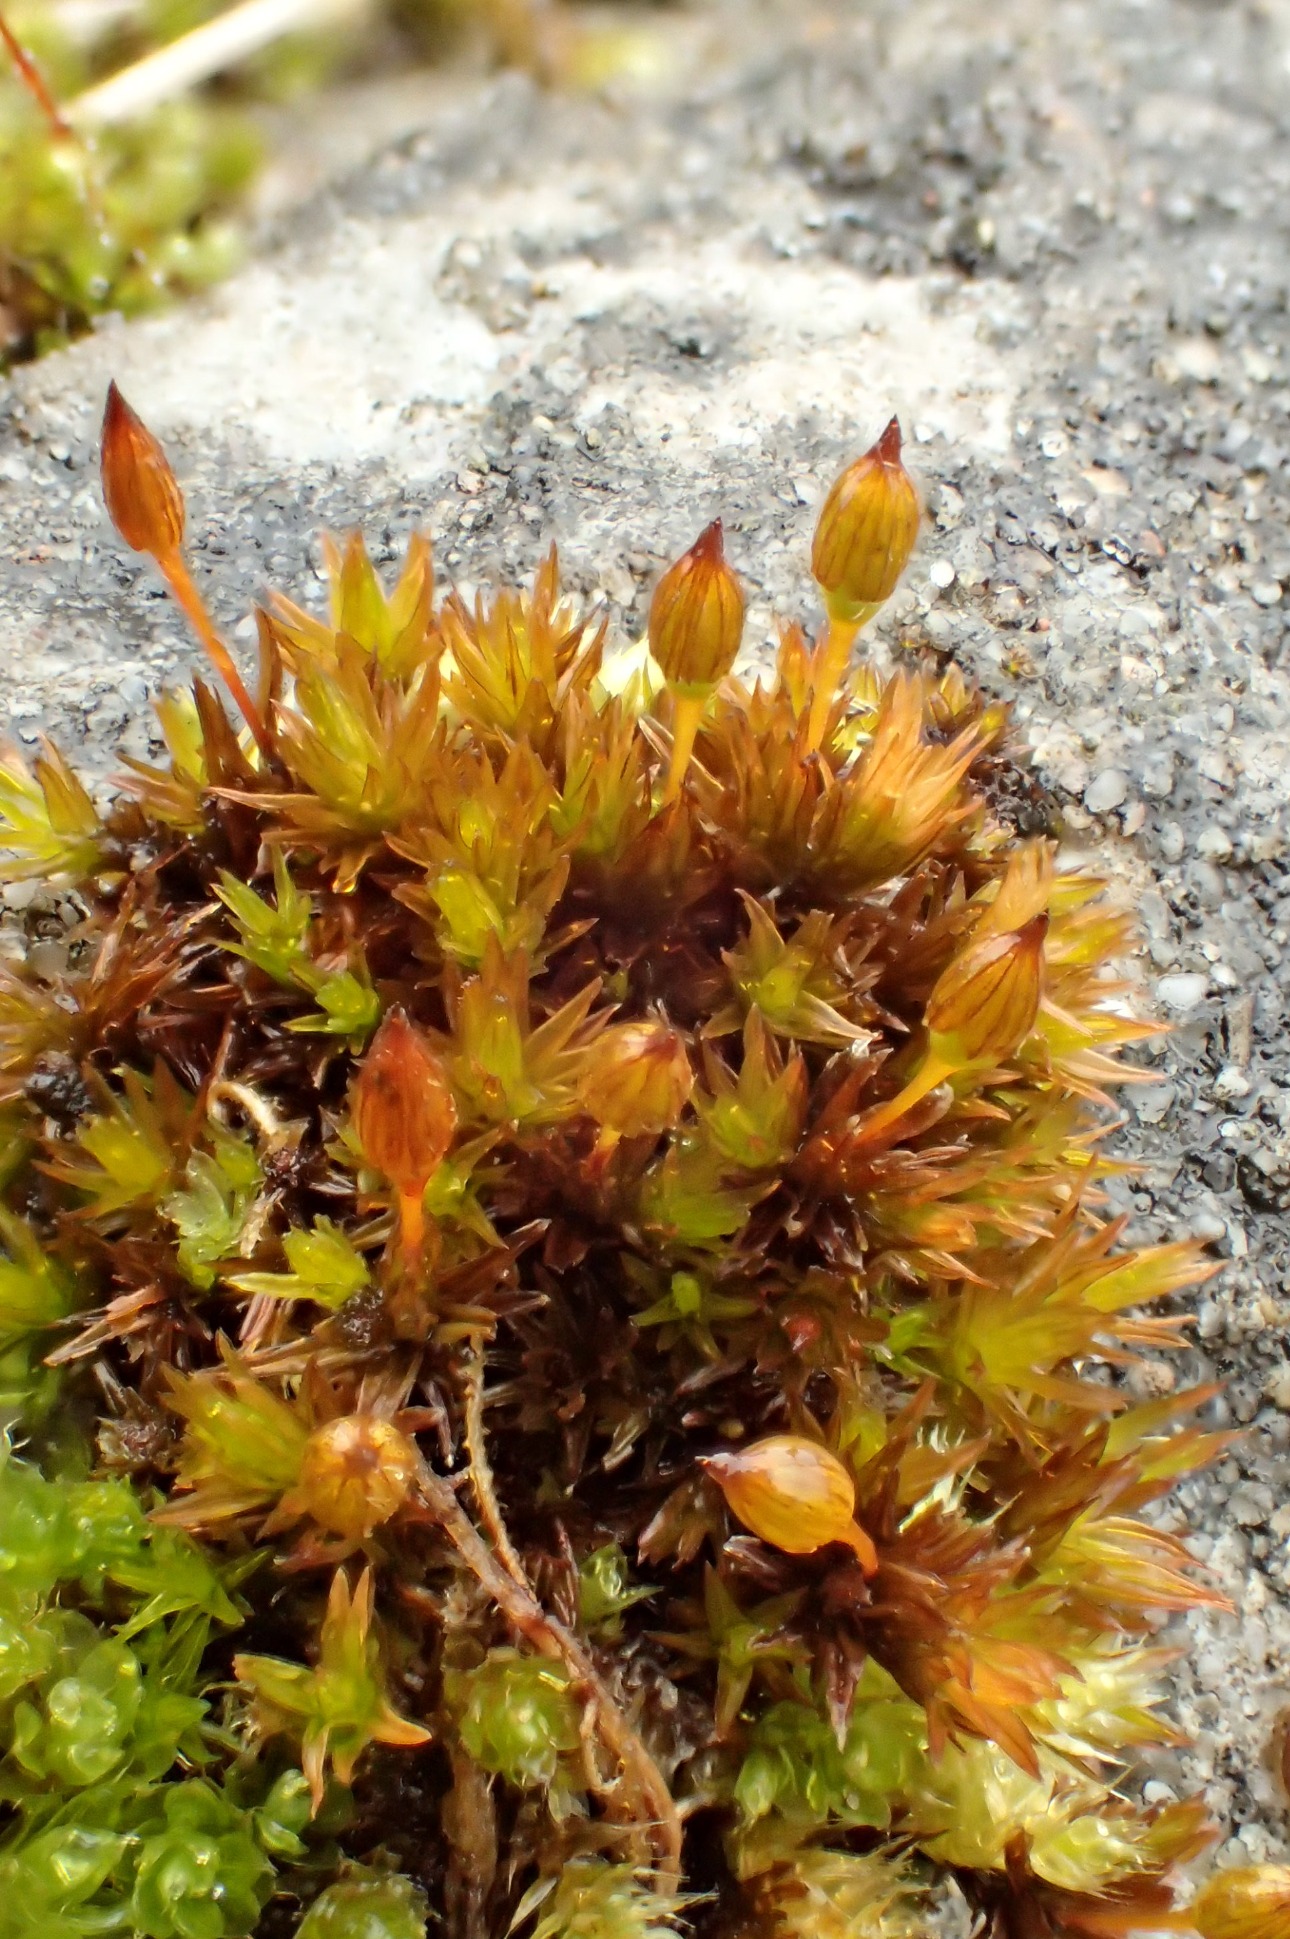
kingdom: Plantae
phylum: Bryophyta
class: Bryopsida
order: Orthotrichales
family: Orthotrichaceae
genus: Orthotrichum
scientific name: Orthotrichum anomalum
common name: Mørk furehætte
